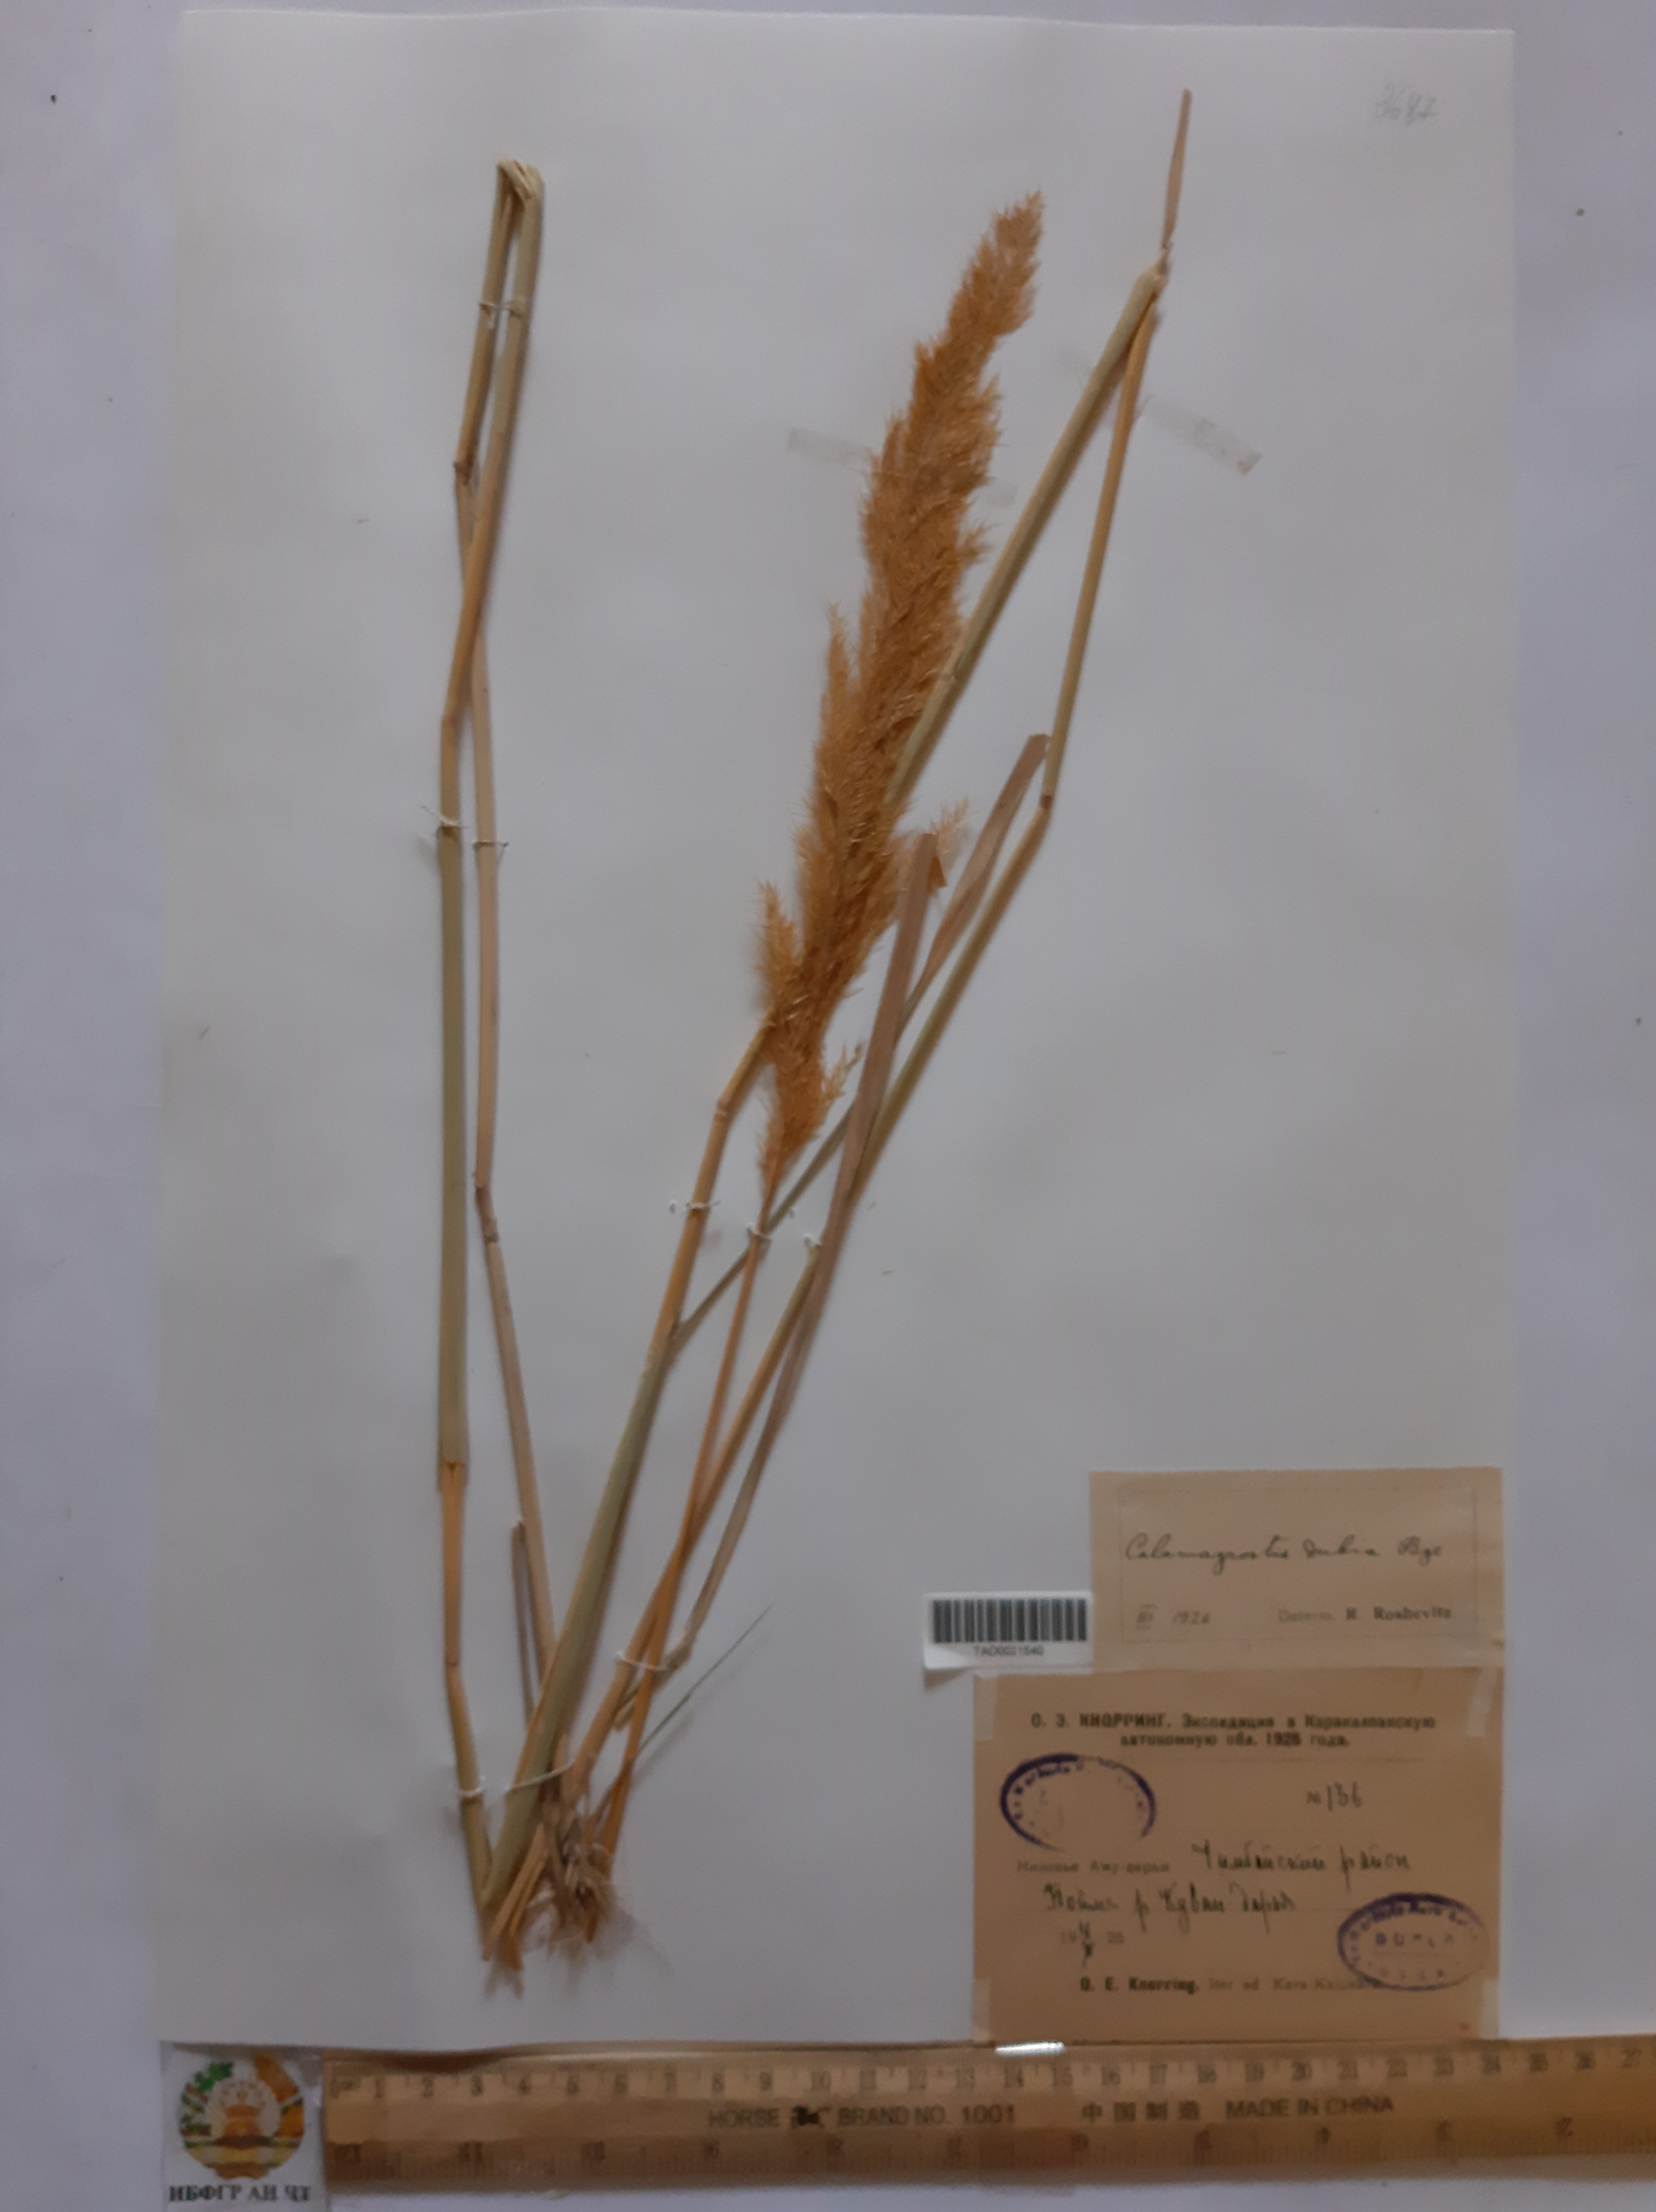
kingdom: Plantae
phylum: Tracheophyta
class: Liliopsida
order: Poales
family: Poaceae
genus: Calamagrostis
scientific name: Calamagrostis pseudophragmites
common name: Coastal small-reed
